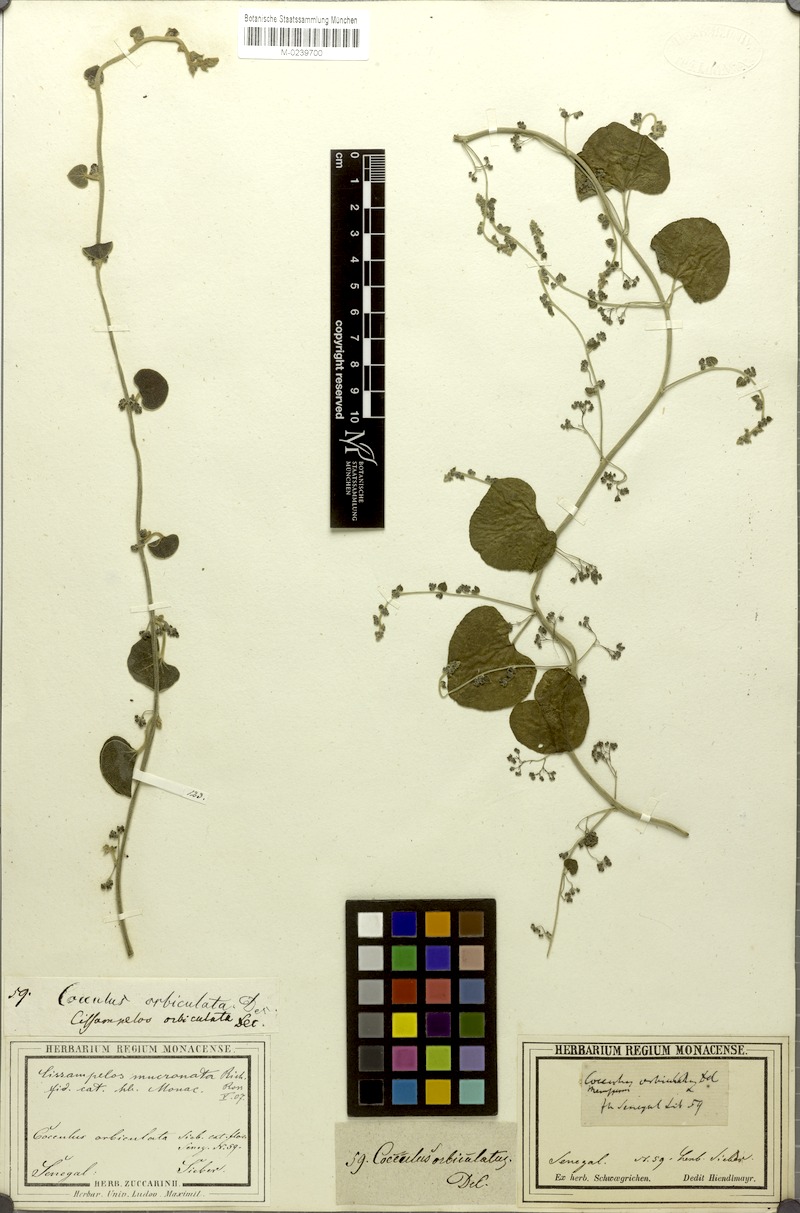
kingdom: Plantae
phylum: Tracheophyta
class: Magnoliopsida
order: Ranunculales
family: Menispermaceae
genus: Cissampelos
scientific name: Cissampelos mucronata
